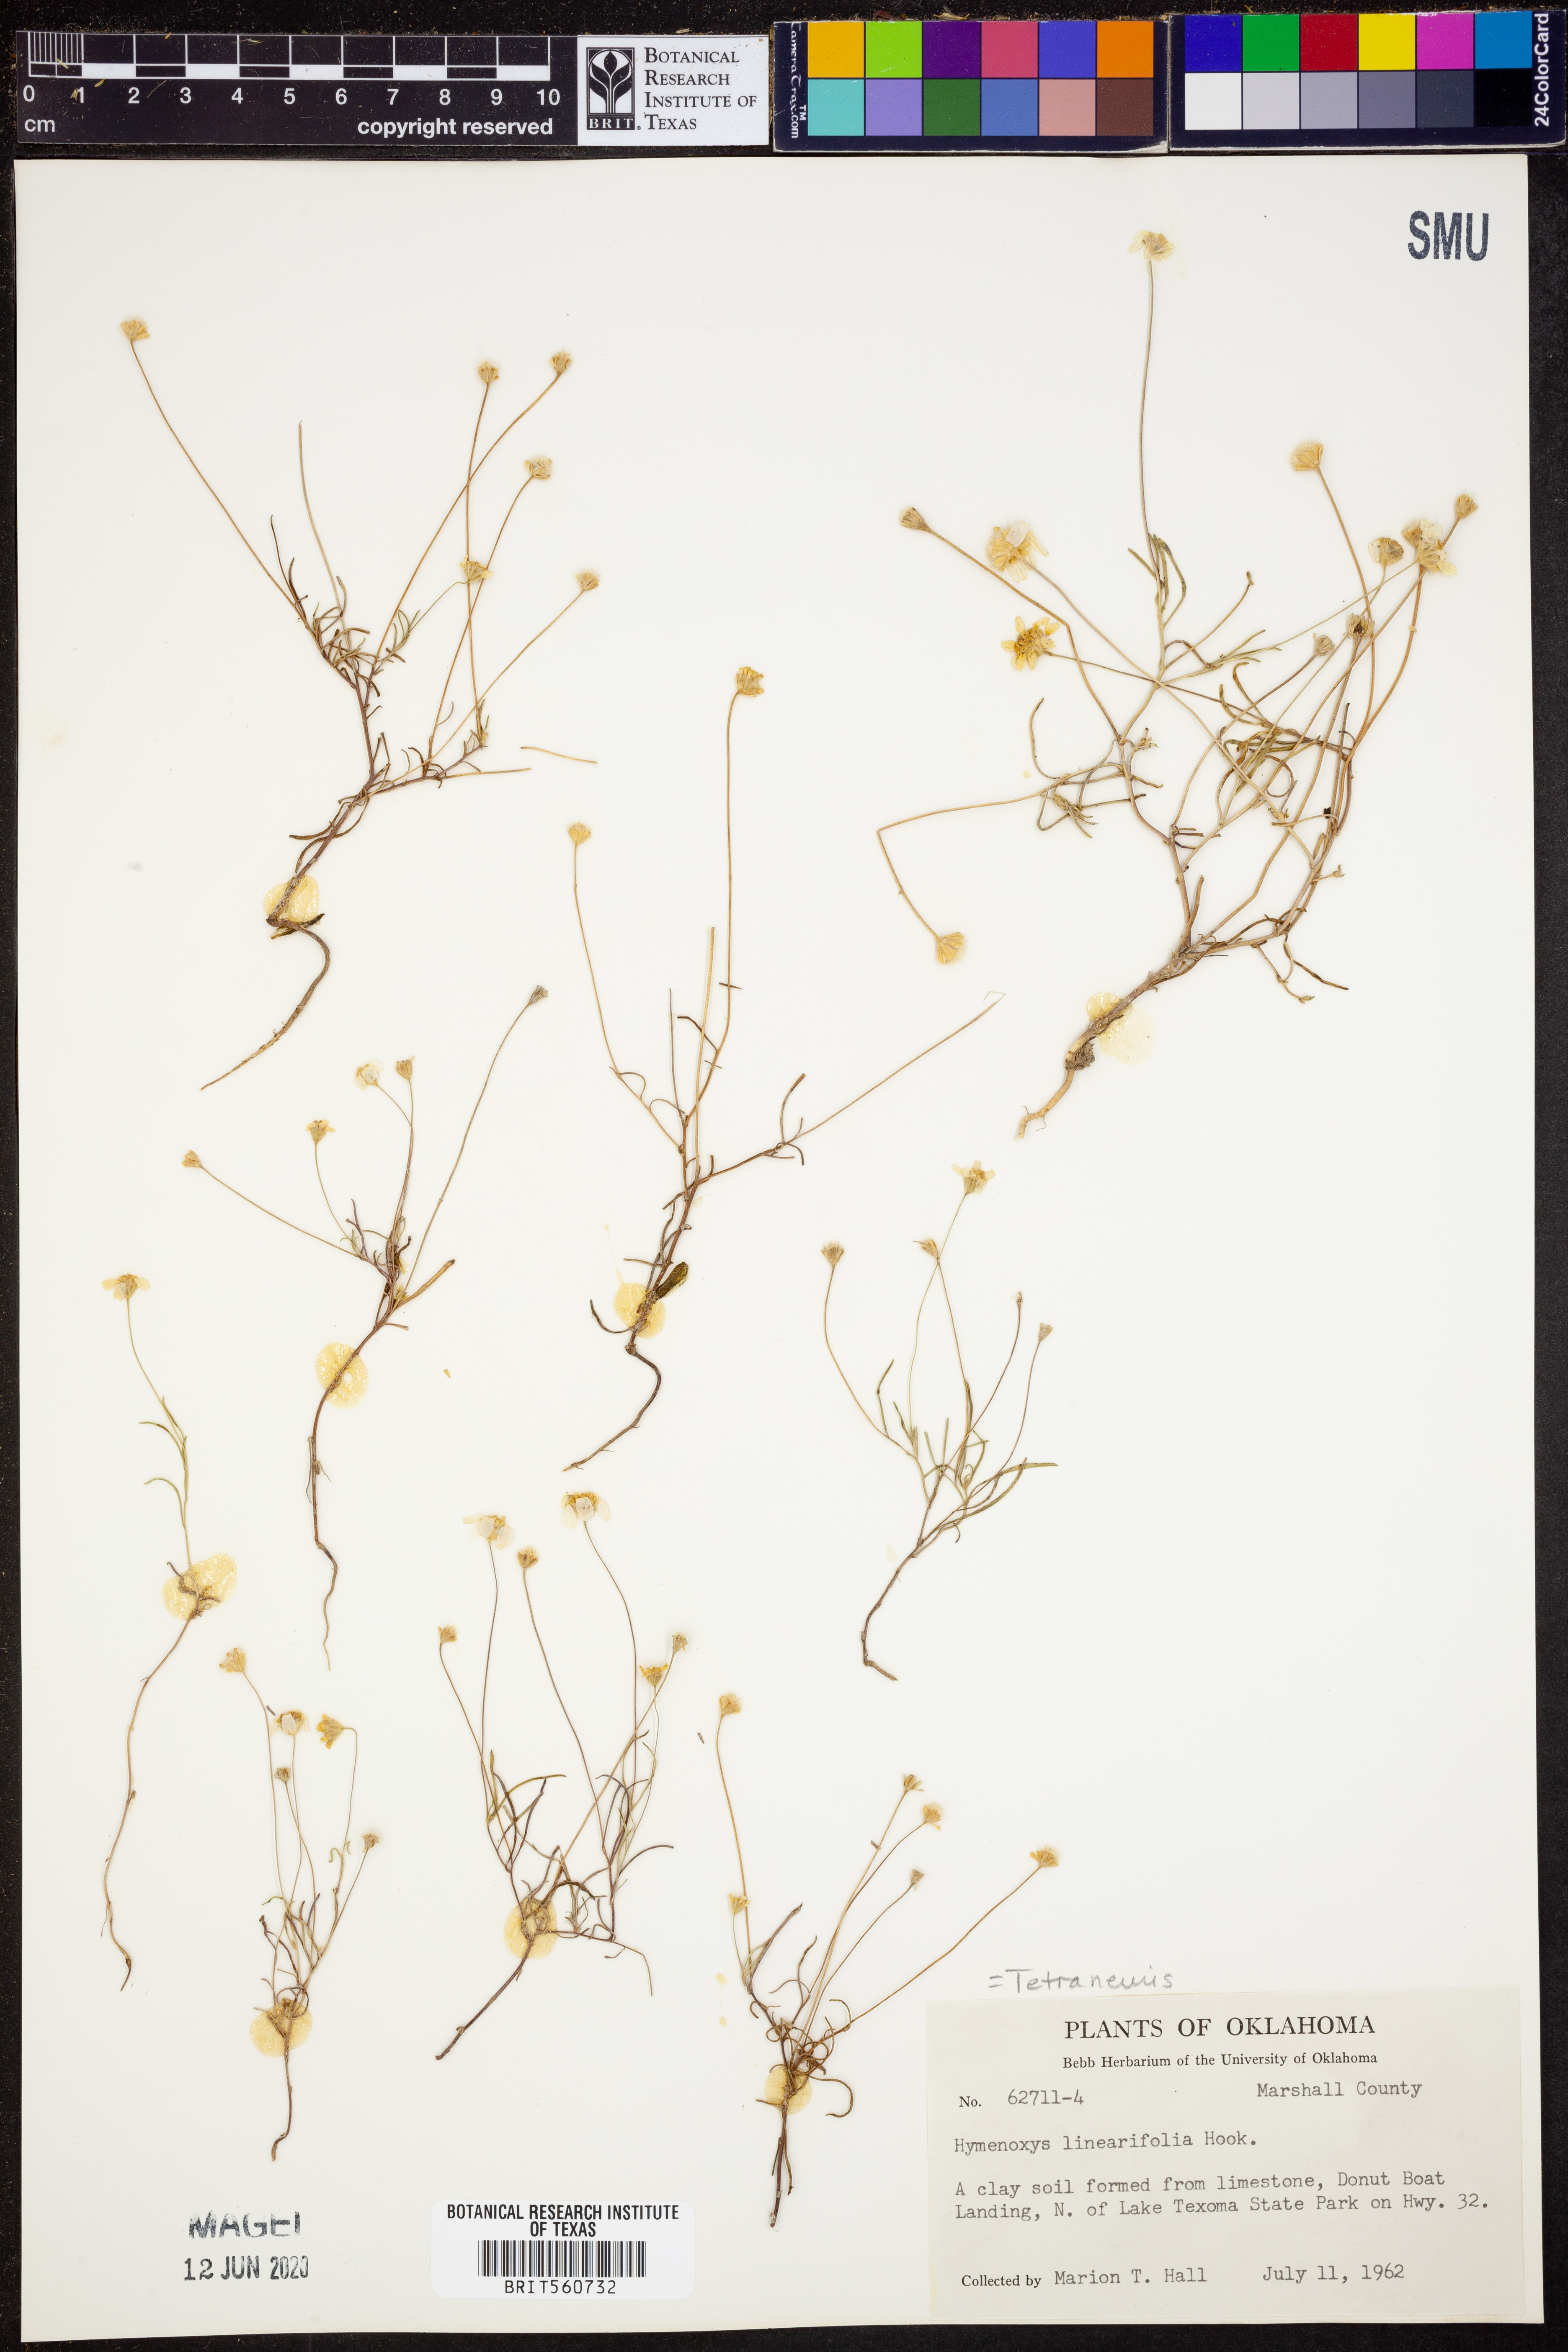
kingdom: Plantae
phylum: Tracheophyta
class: Magnoliopsida
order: Asterales
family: Asteraceae
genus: Tetraneuris
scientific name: Tetraneuris linearifolia
